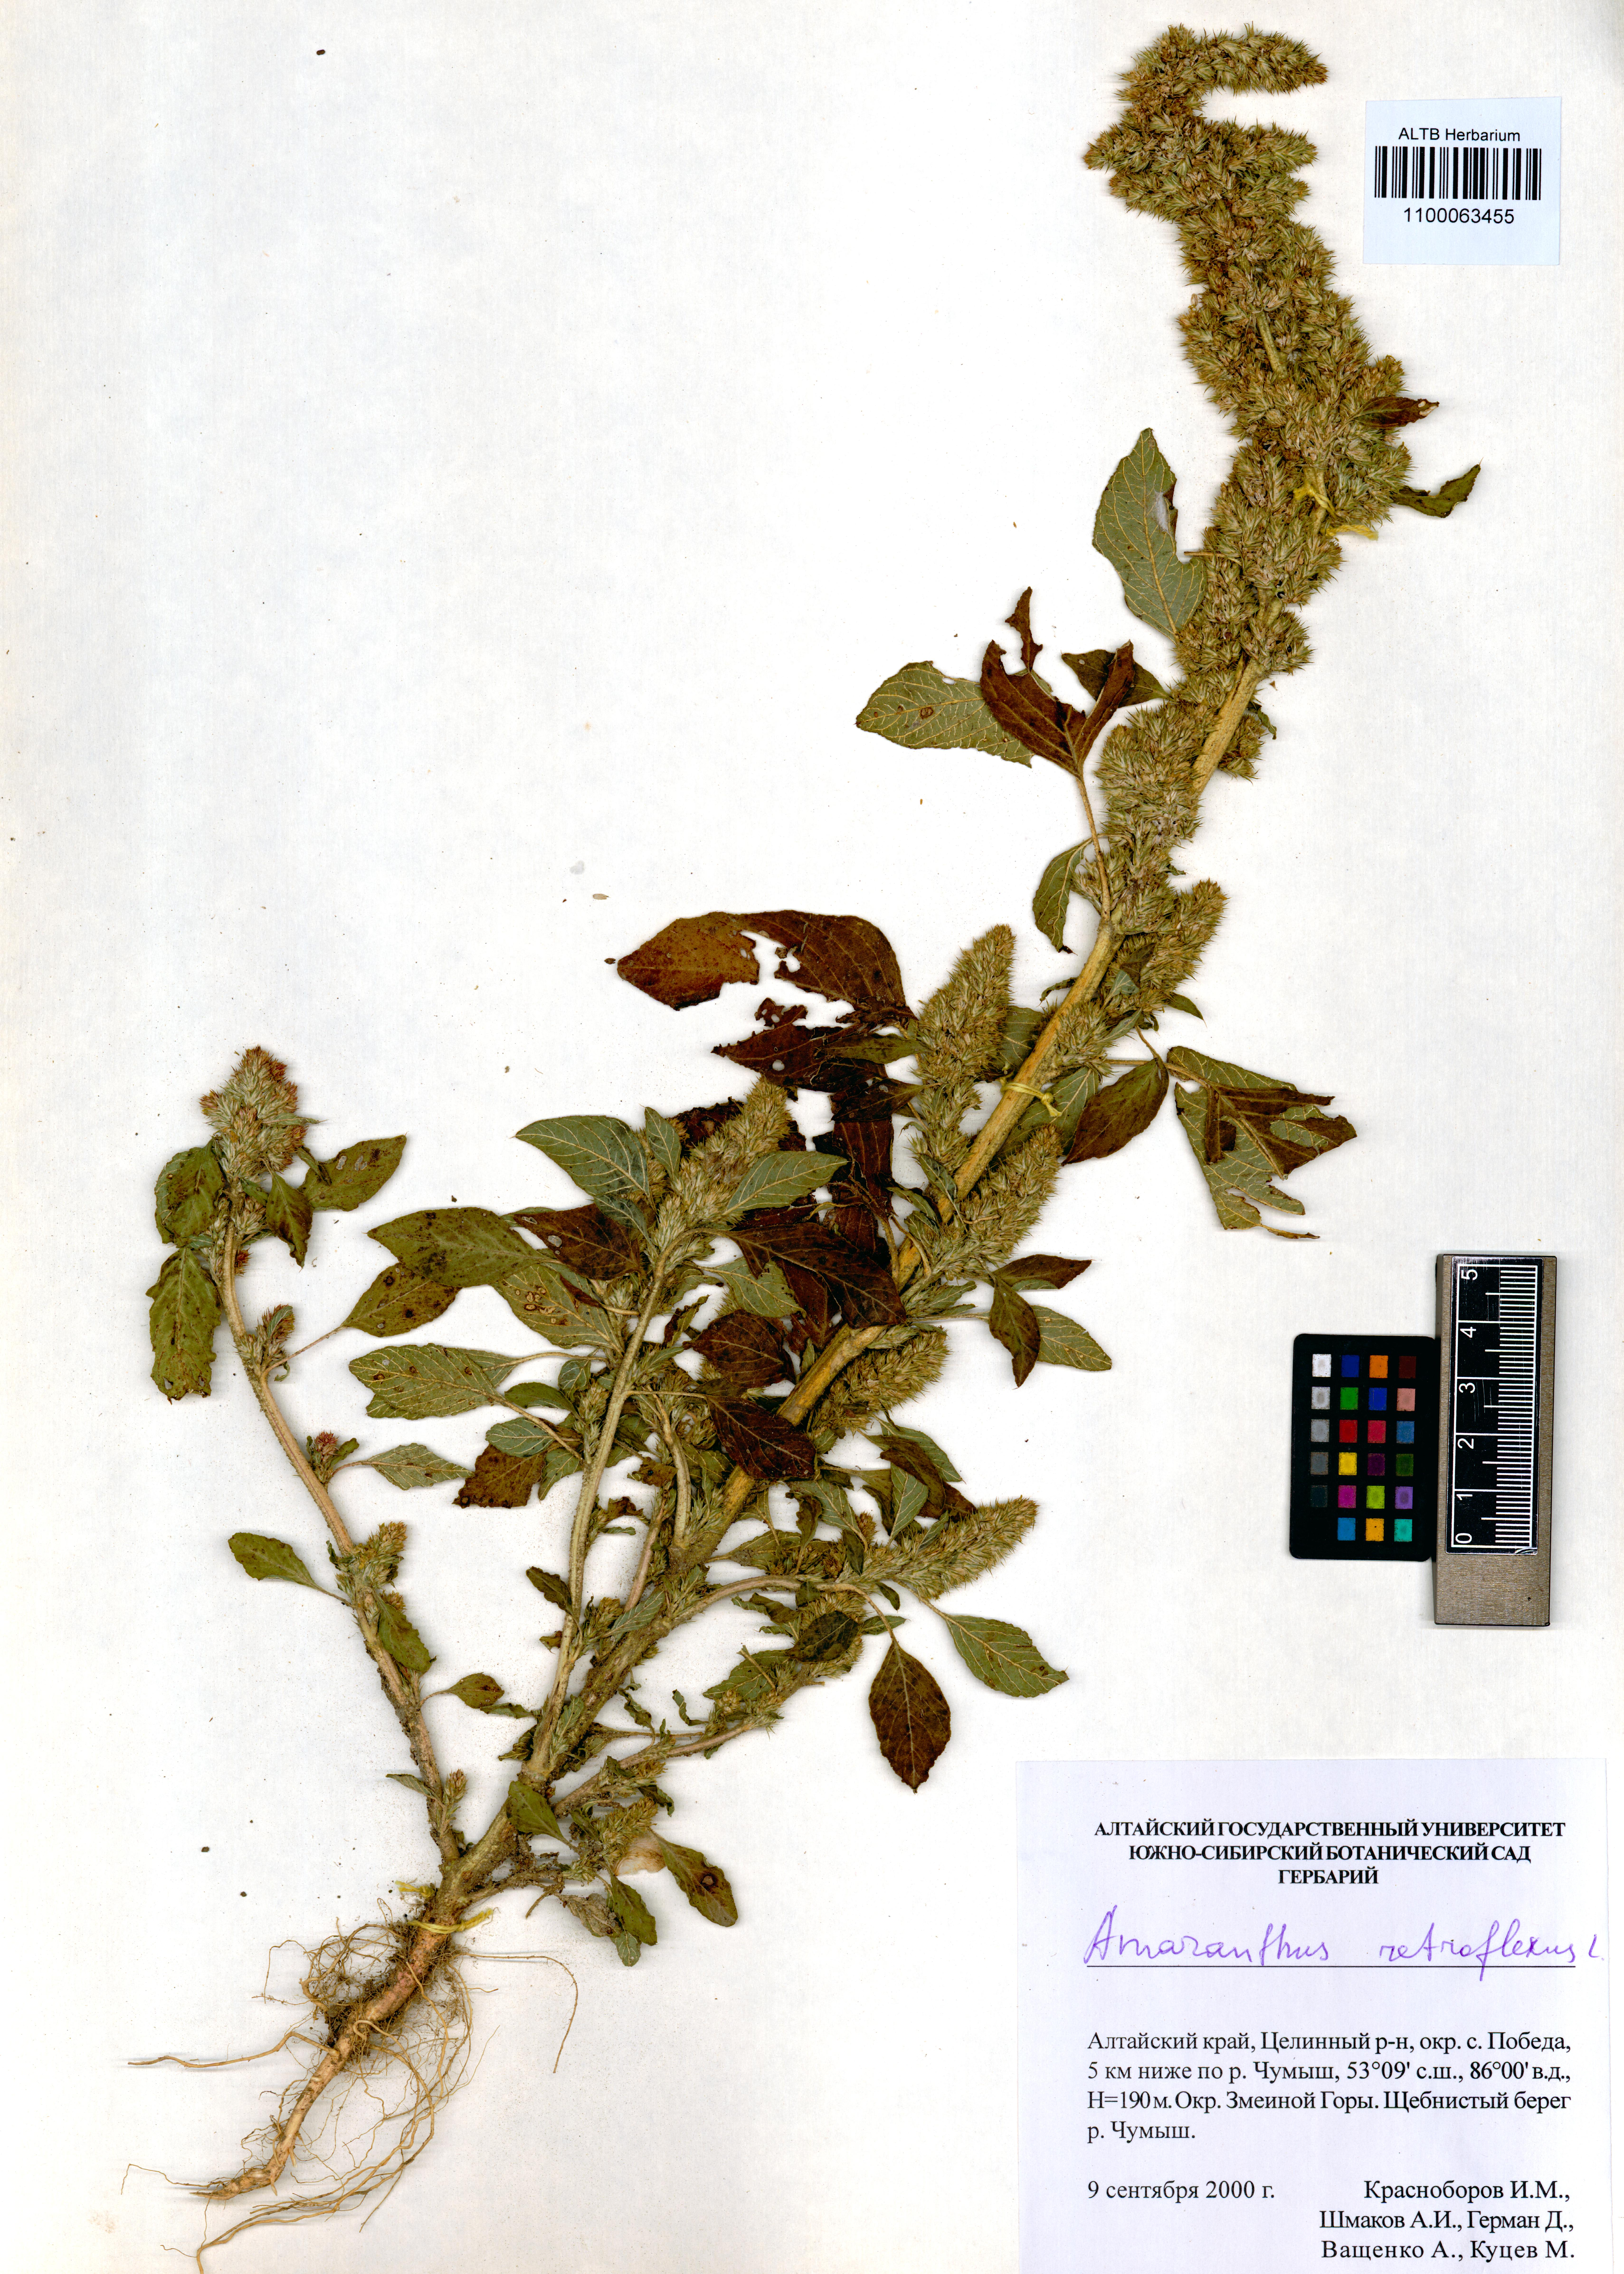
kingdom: Plantae
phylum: Tracheophyta
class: Magnoliopsida
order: Caryophyllales
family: Amaranthaceae
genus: Amaranthus
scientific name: Amaranthus retroflexus
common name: Redroot amaranth
